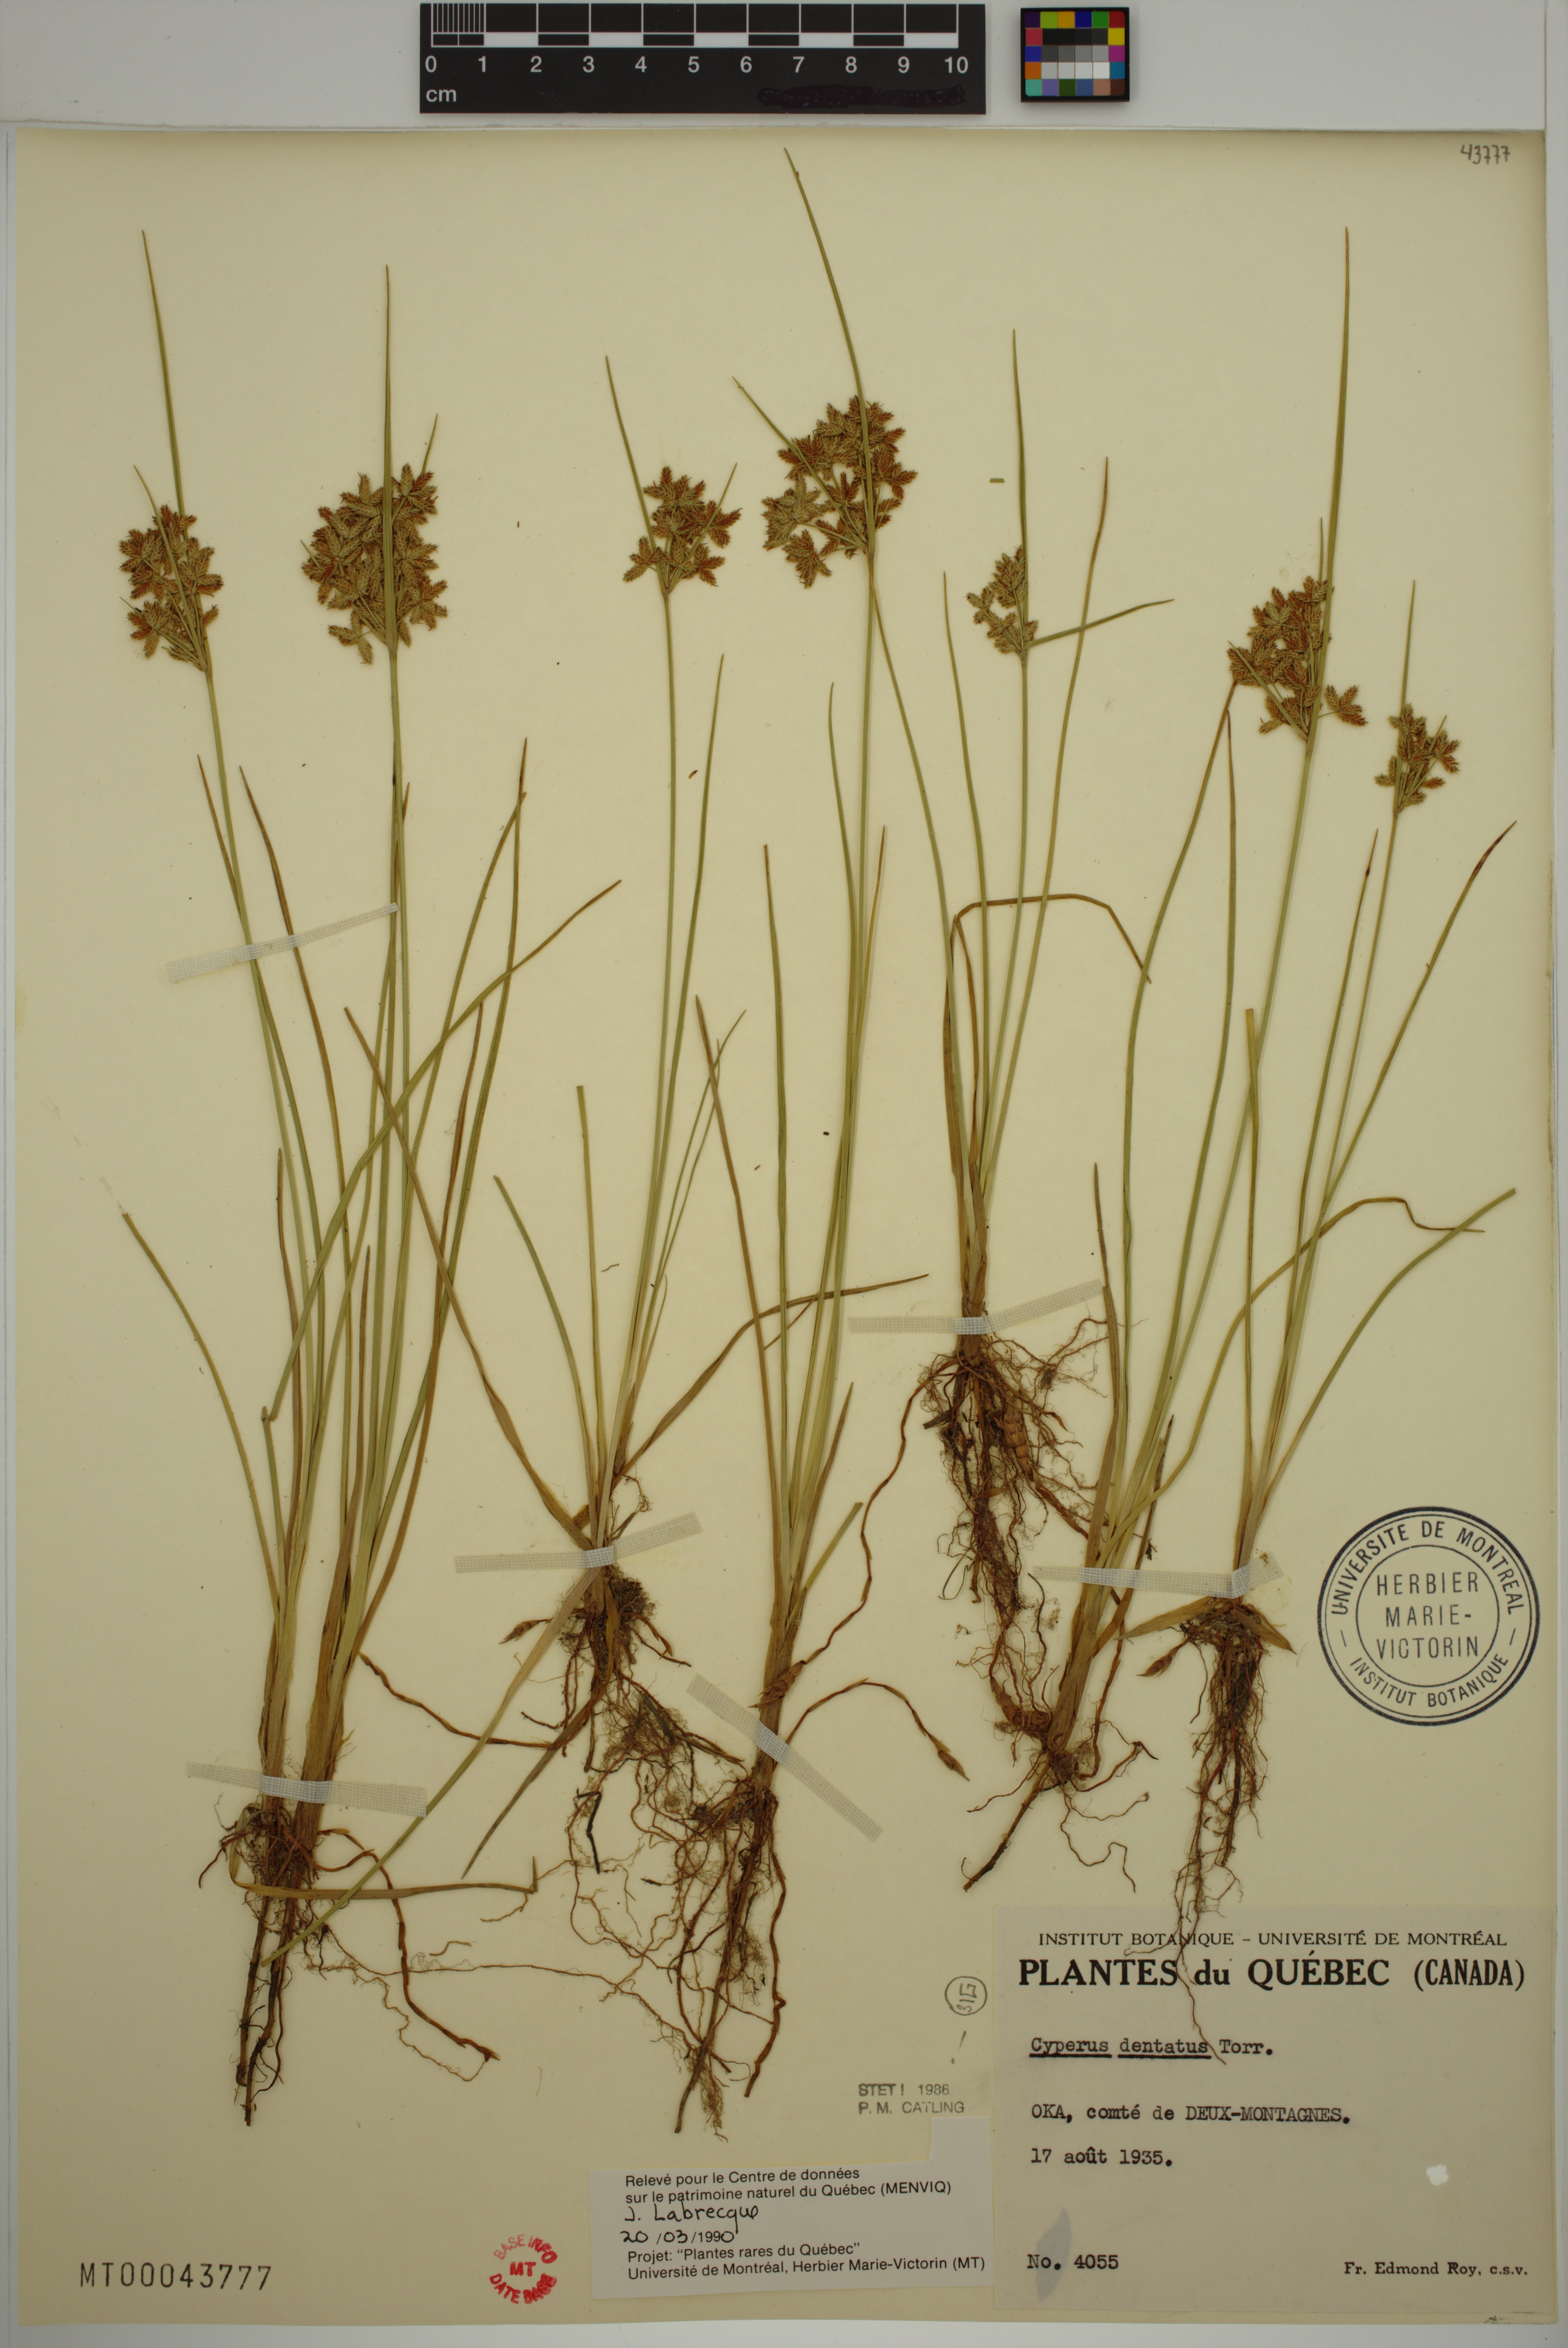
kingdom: Plantae
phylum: Tracheophyta
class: Liliopsida
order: Poales
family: Cyperaceae
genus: Cyperus
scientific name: Cyperus dentatus
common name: Dentate umbrella sedge
